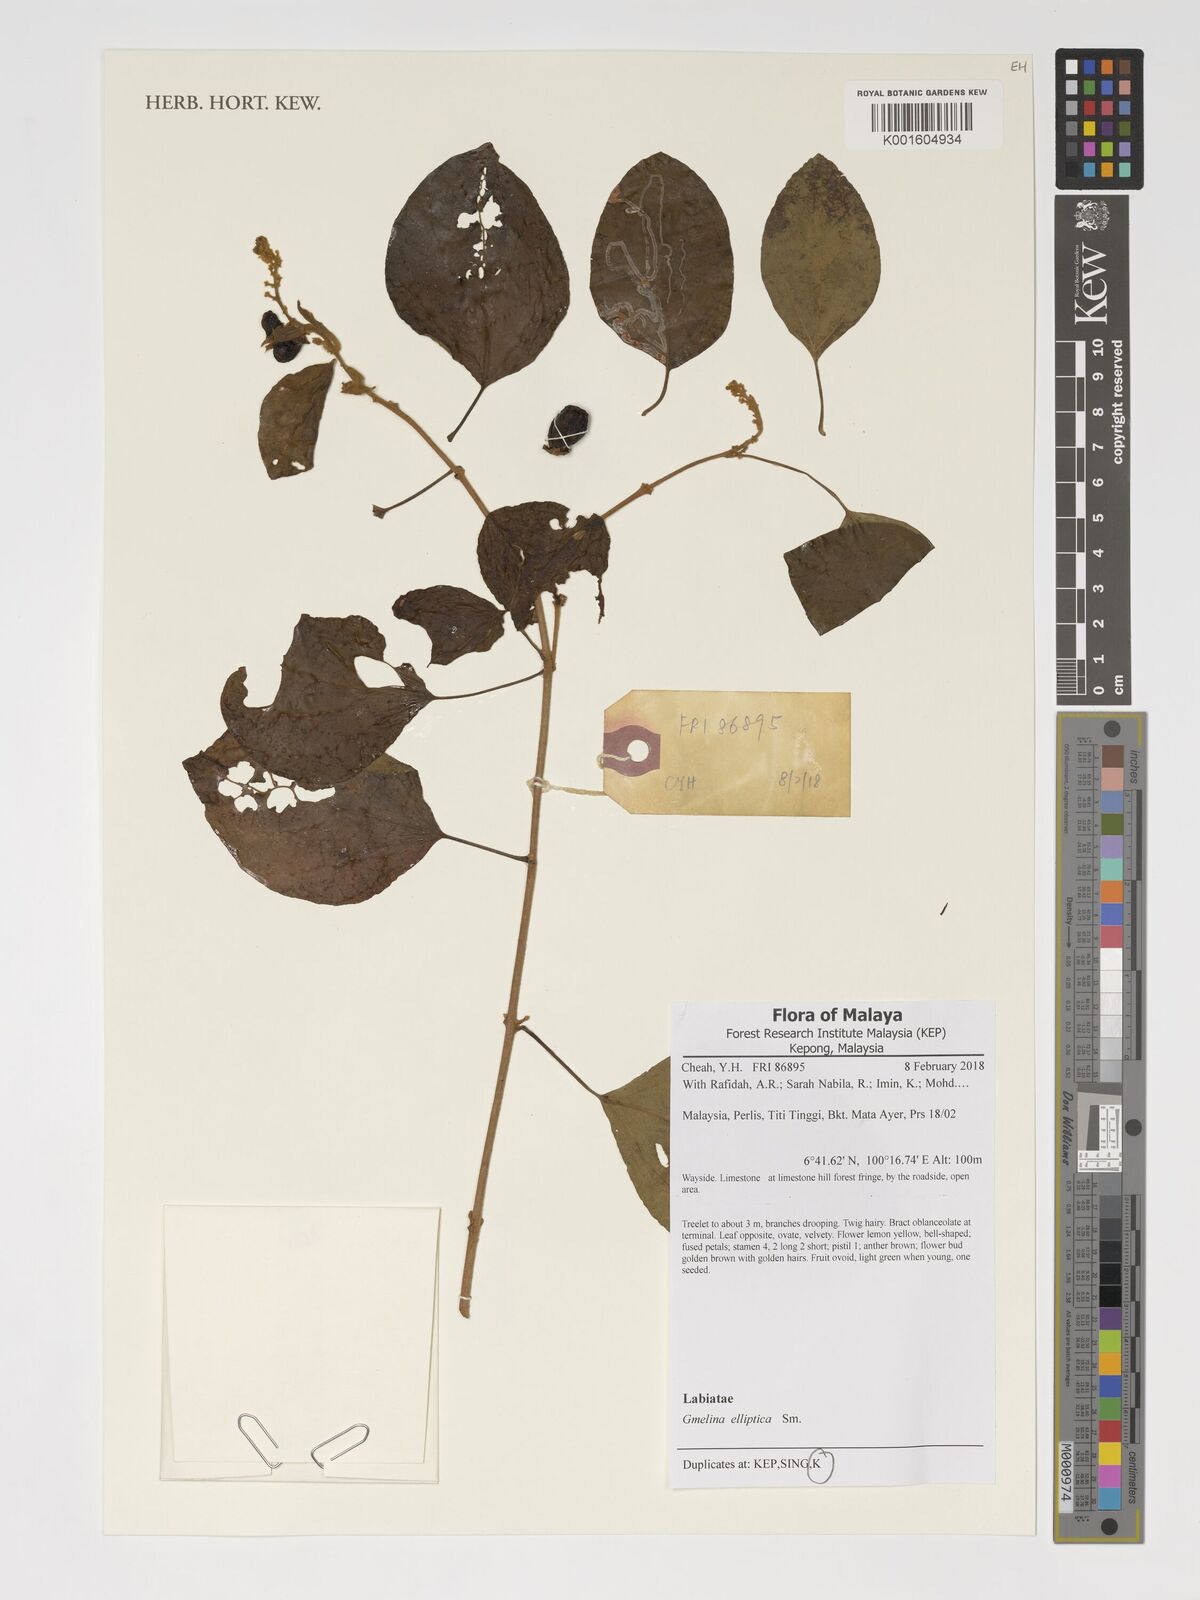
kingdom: Plantae
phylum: Tracheophyta
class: Magnoliopsida
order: Lamiales
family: Lamiaceae
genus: Gmelina
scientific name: Gmelina elliptica
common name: Badhara-bush
